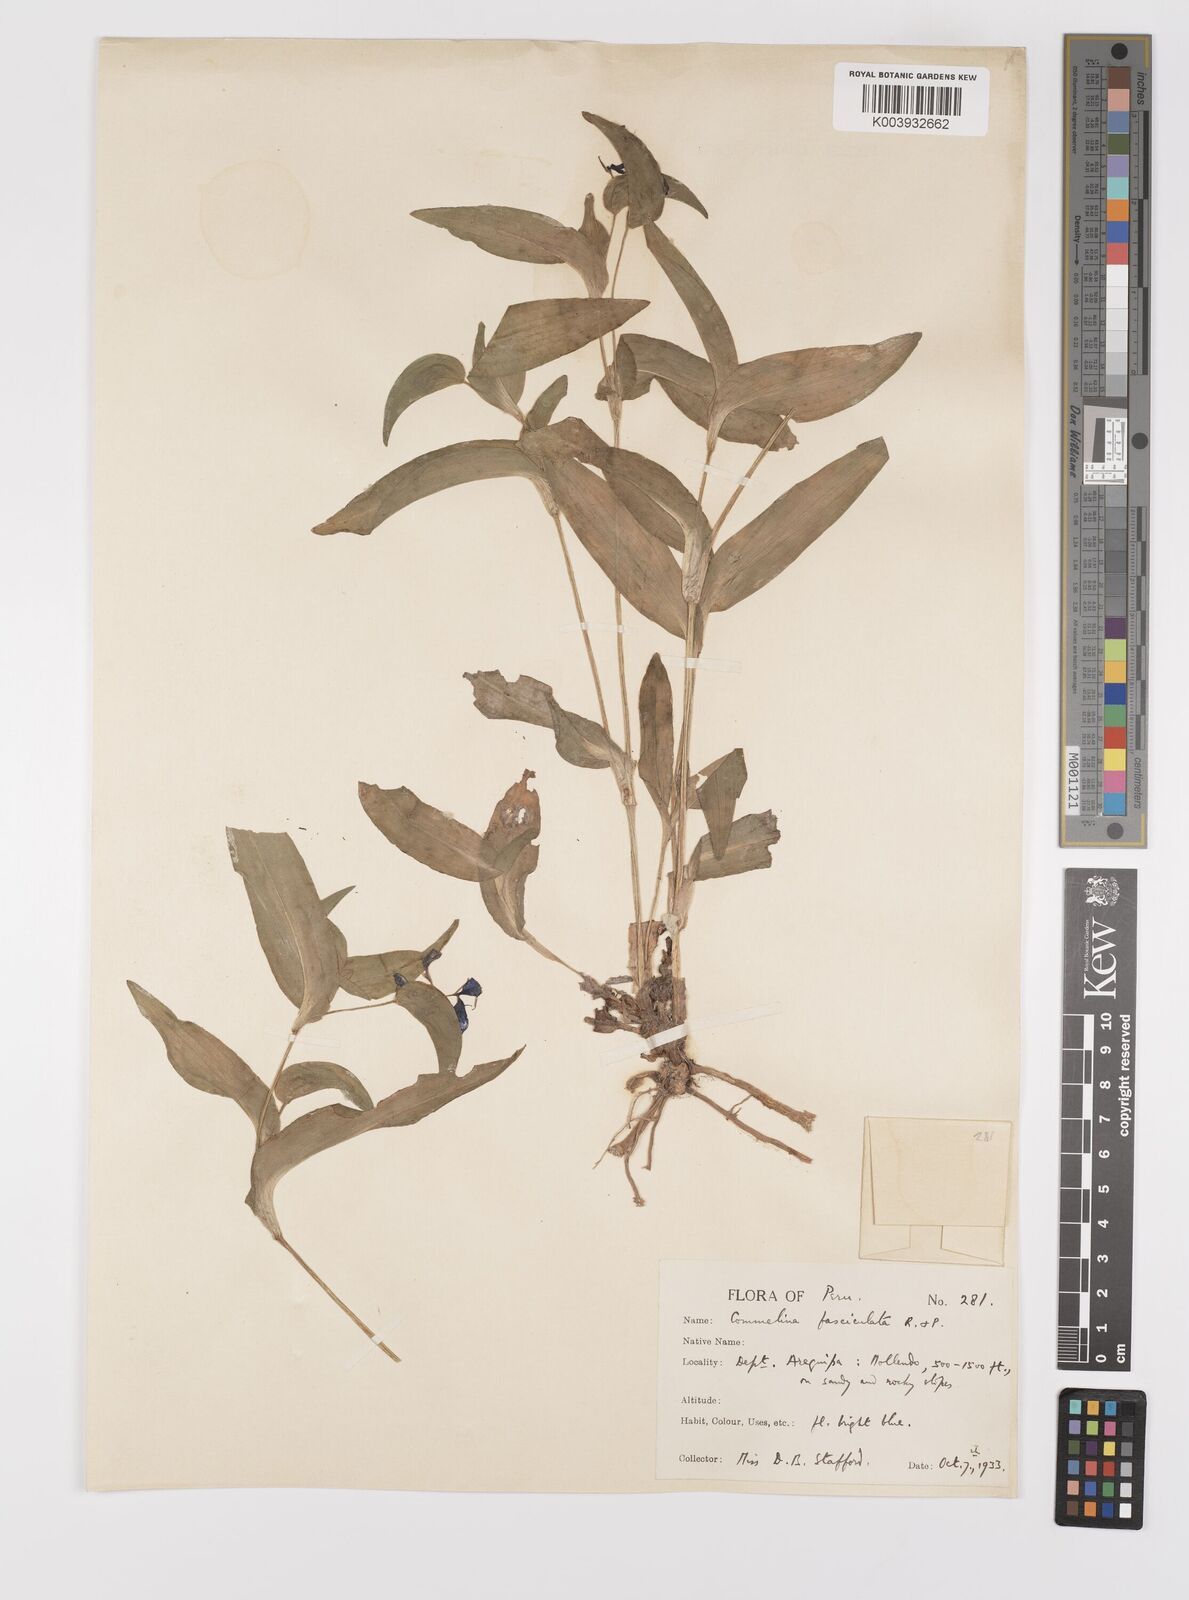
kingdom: Plantae
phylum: Tracheophyta
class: Liliopsida
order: Commelinales
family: Commelinaceae
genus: Commelina
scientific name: Commelina tuberosa
